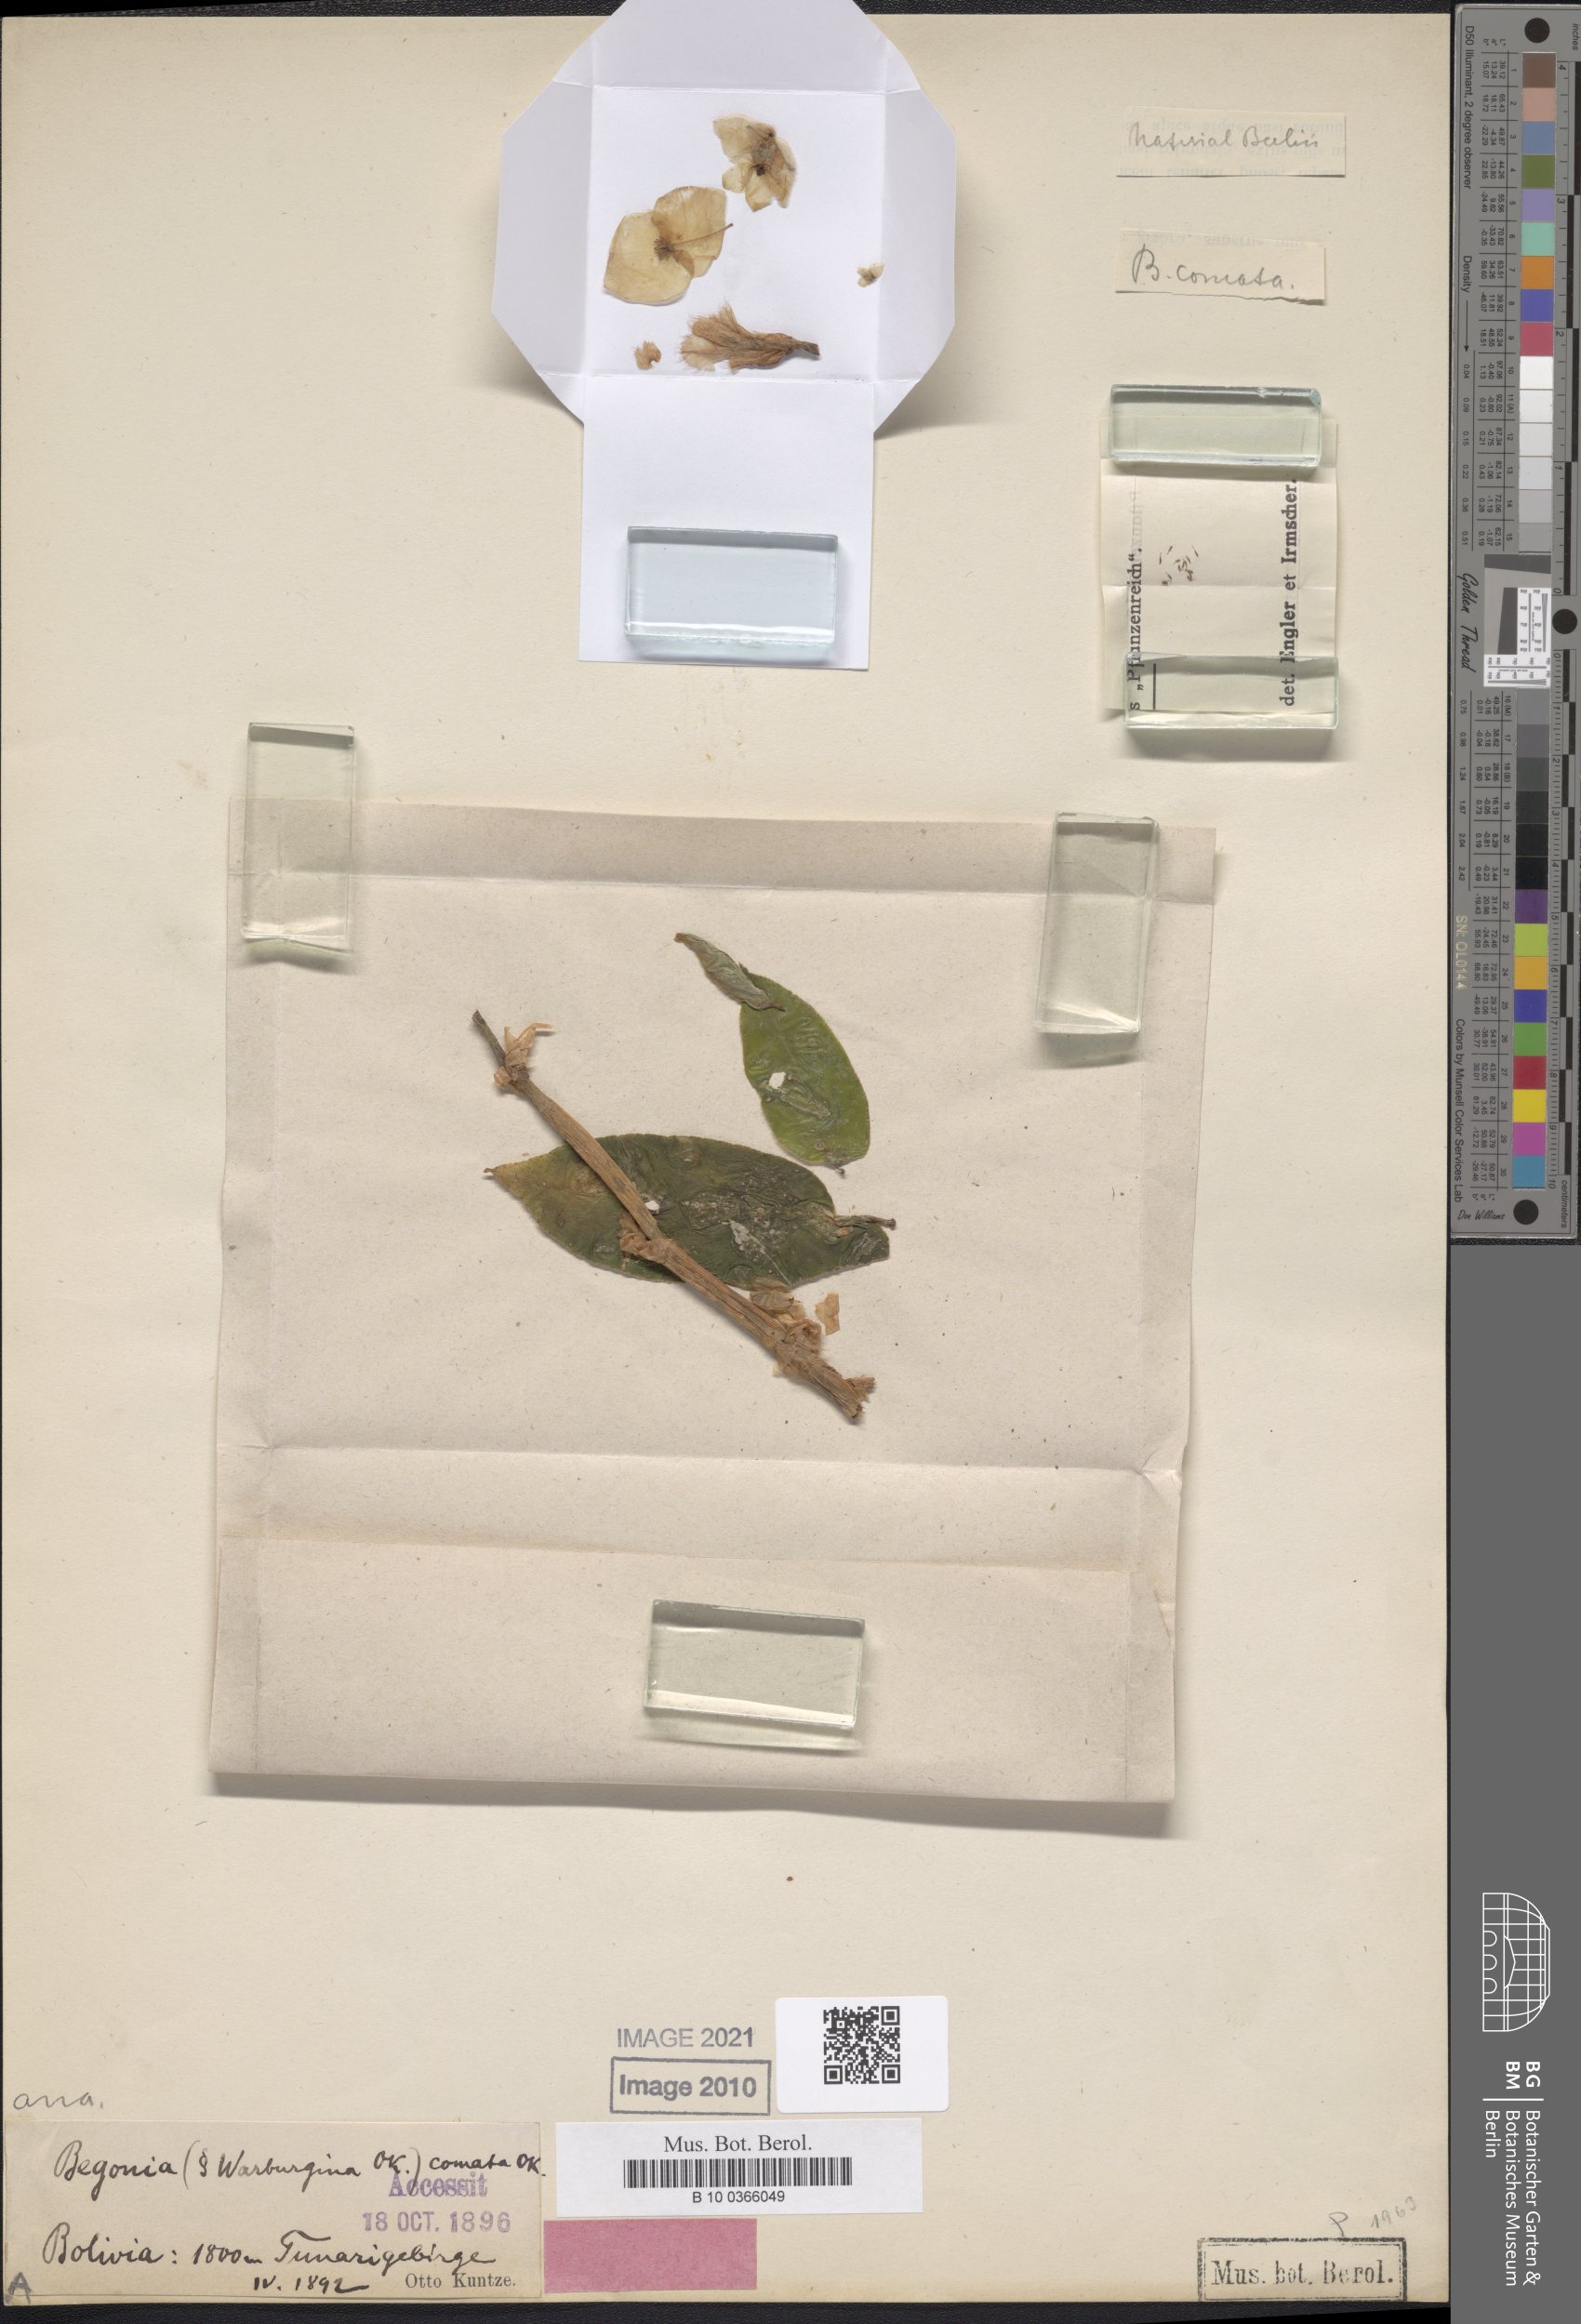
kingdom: Plantae
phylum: Tracheophyta
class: Magnoliopsida
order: Cucurbitales
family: Begoniaceae
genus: Begonia
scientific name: Begonia comata
